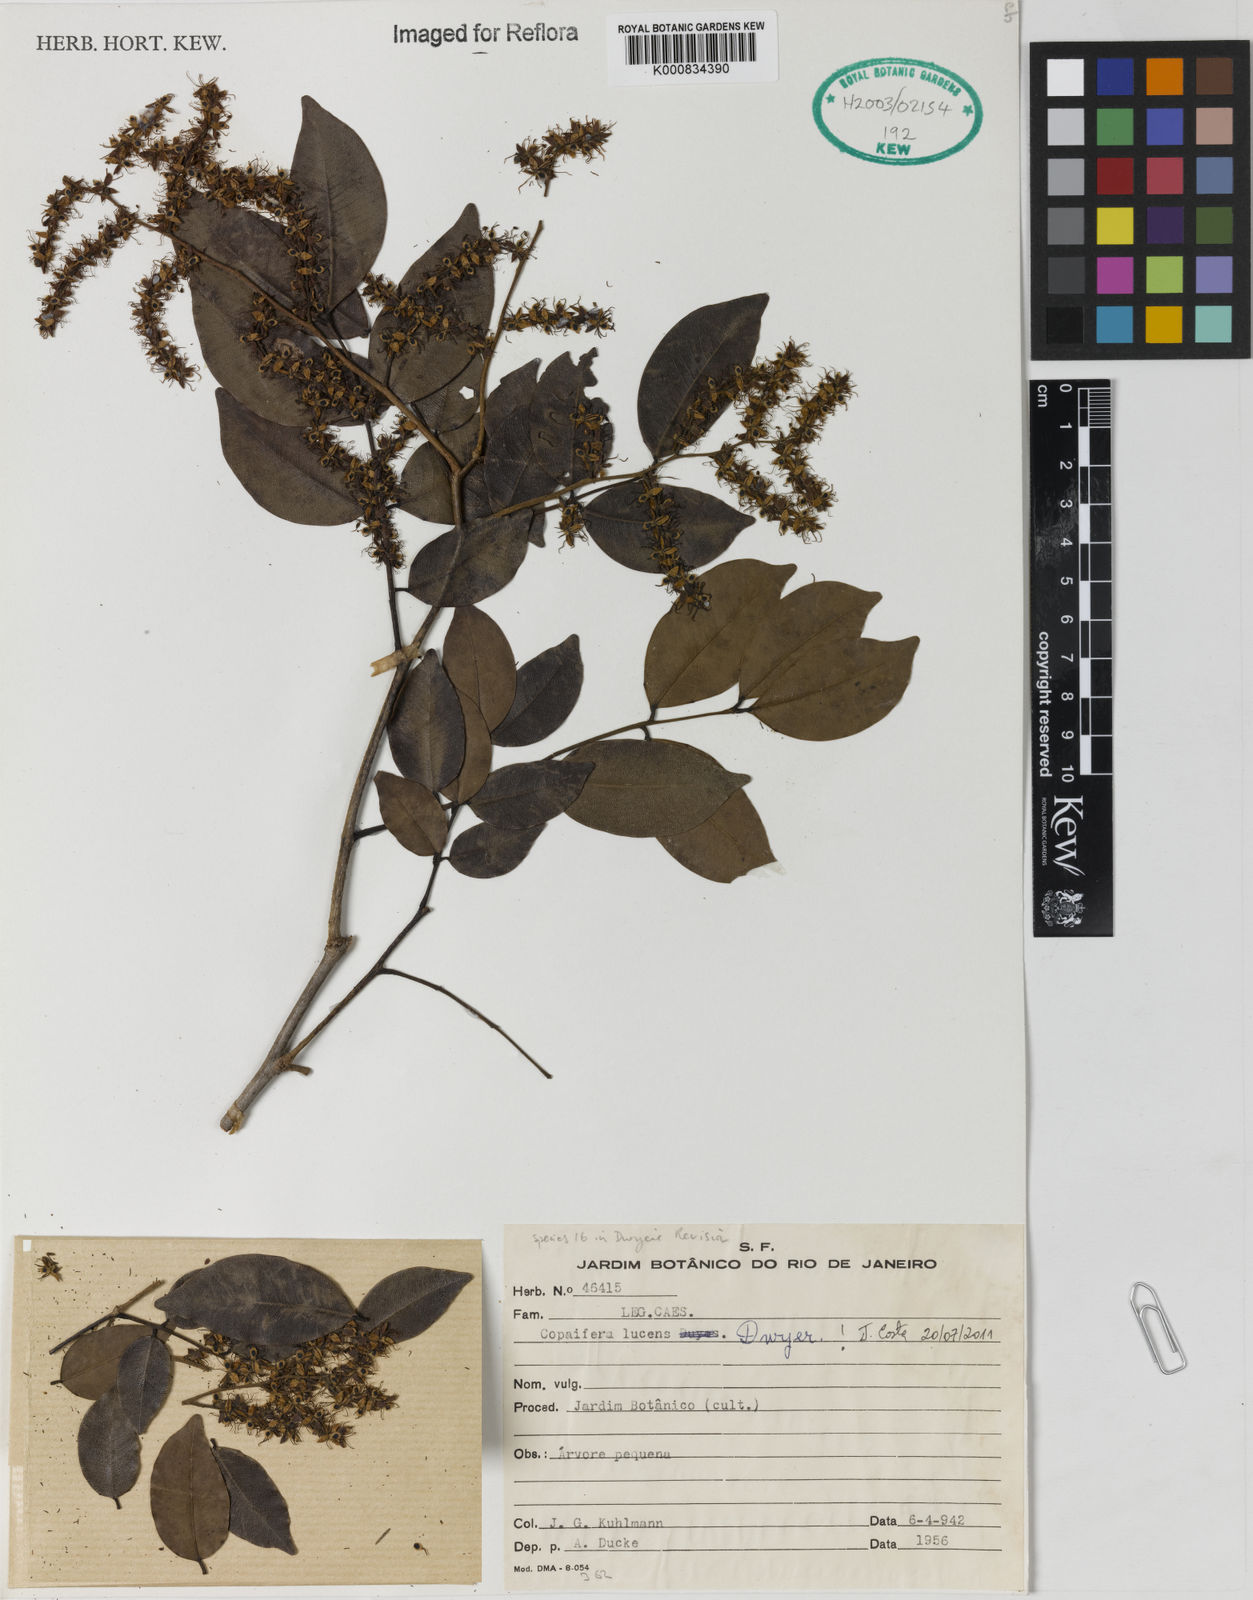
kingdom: Plantae
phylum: Tracheophyta
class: Magnoliopsida
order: Fabales
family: Fabaceae
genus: Copaifera
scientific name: Copaifera lucens
